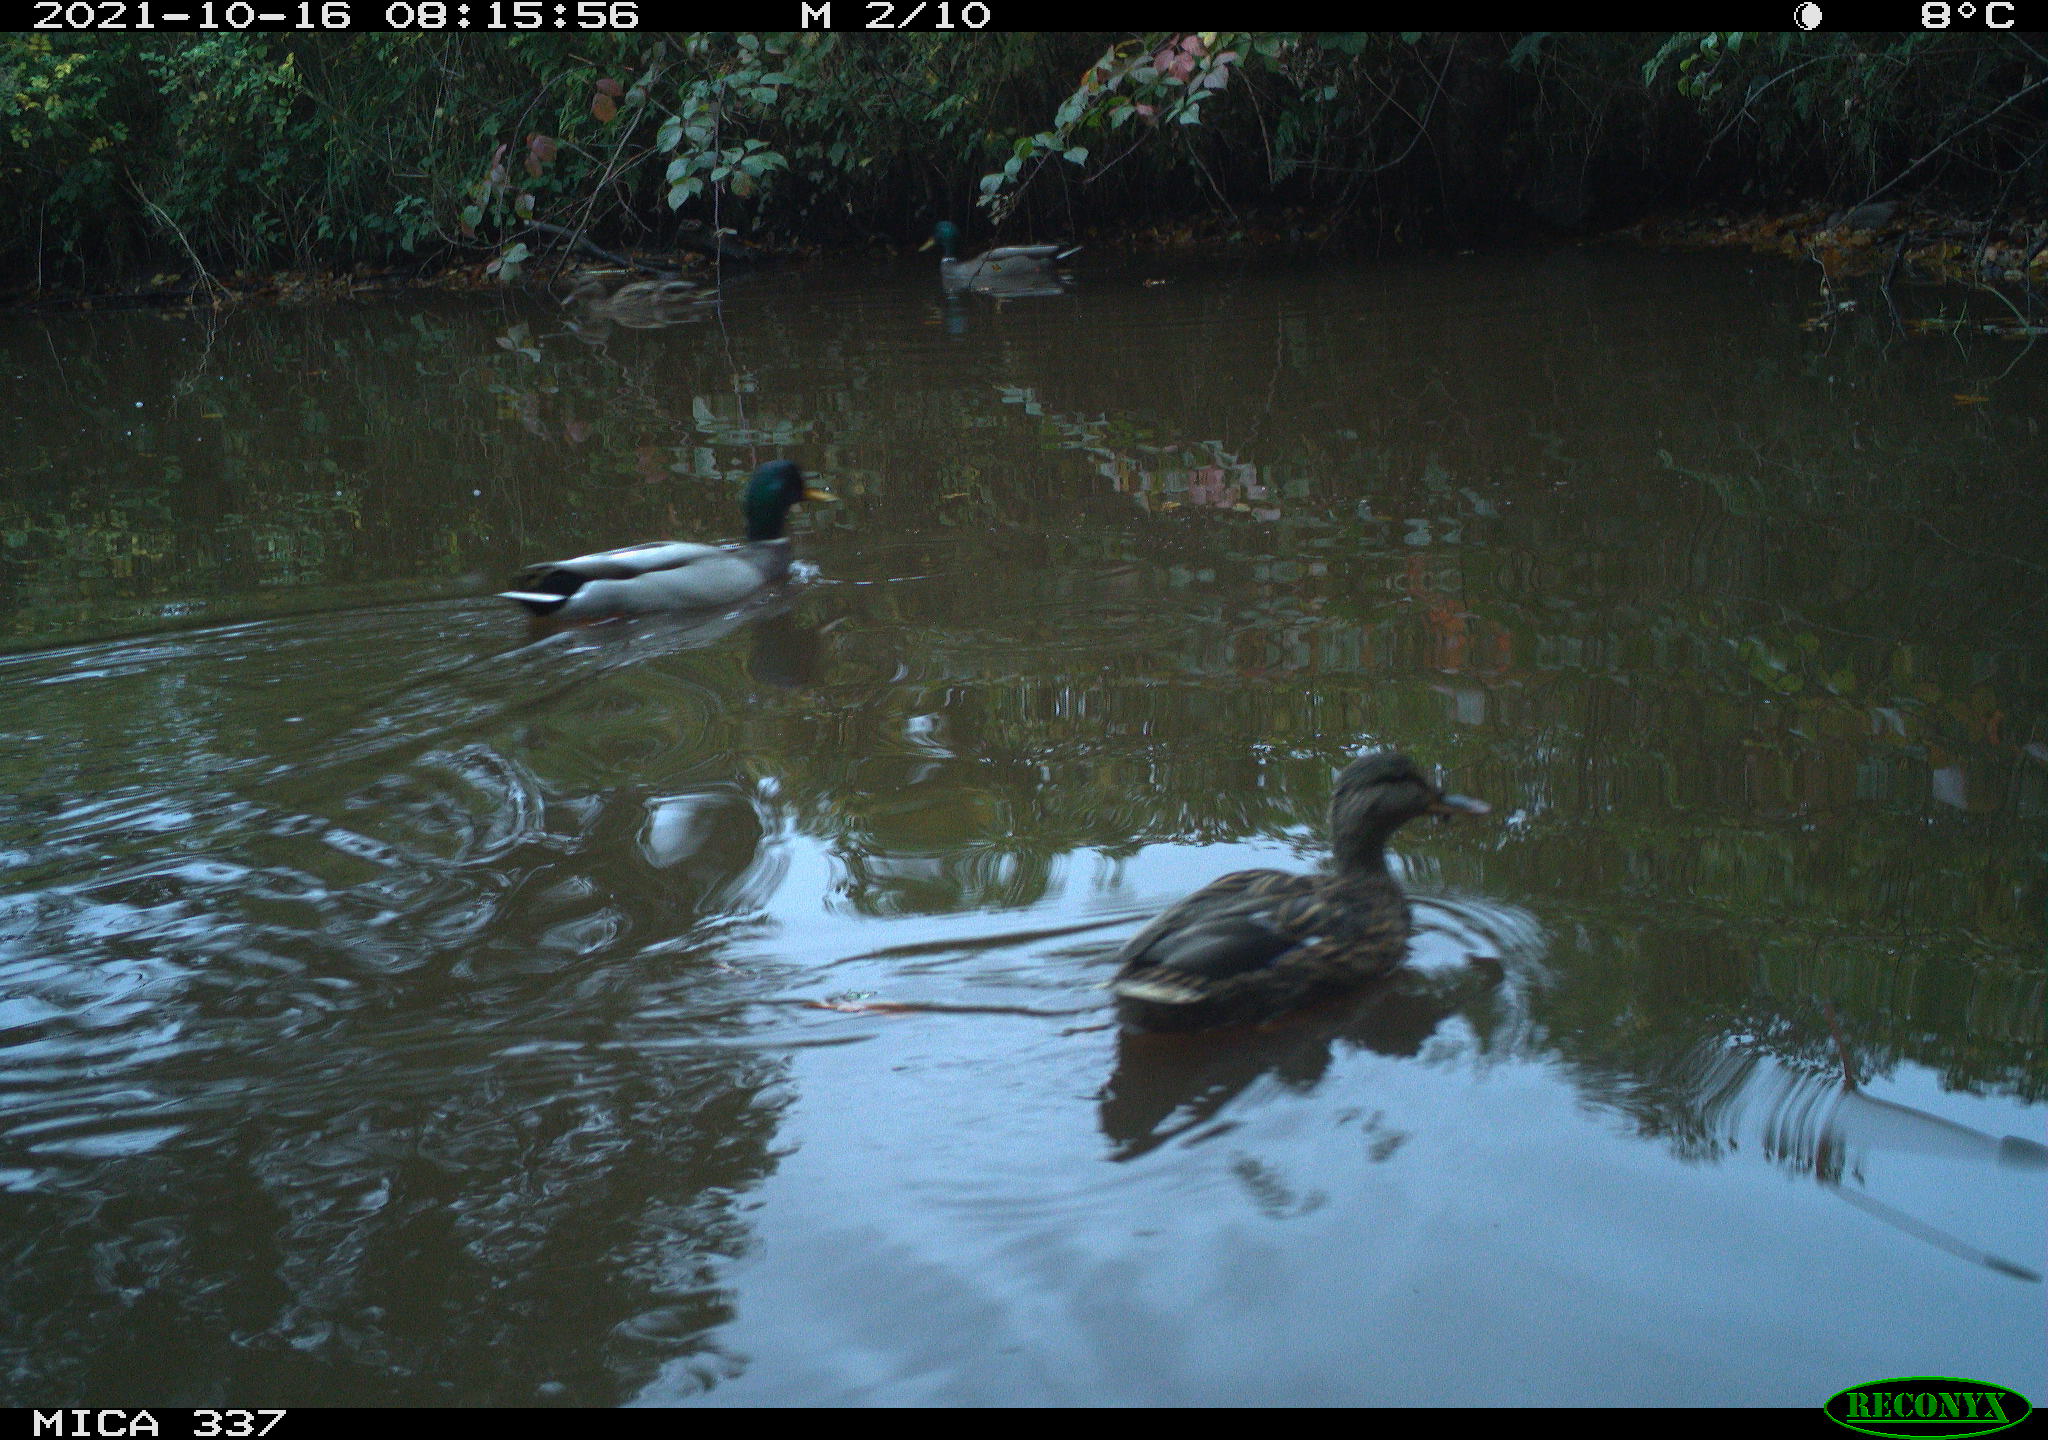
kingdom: Animalia
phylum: Chordata
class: Aves
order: Anseriformes
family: Anatidae
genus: Anas
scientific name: Anas platyrhynchos
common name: Mallard
